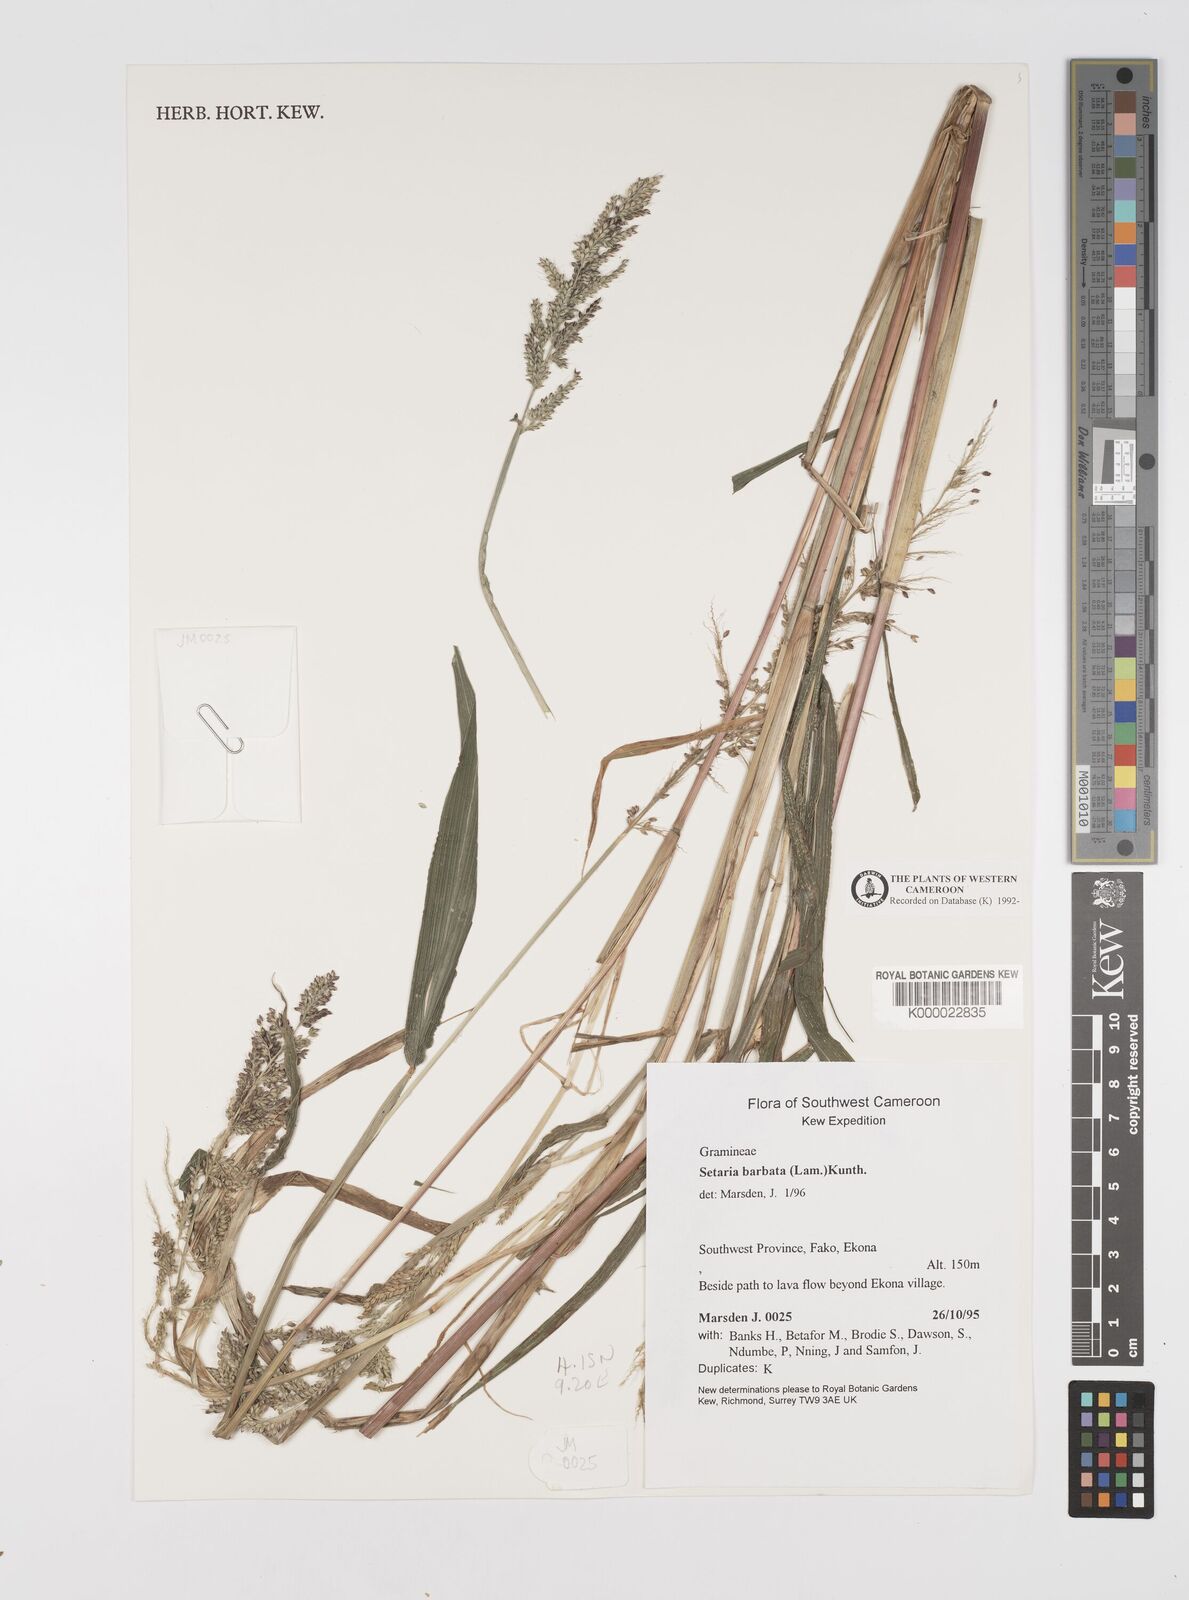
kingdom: Plantae
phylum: Tracheophyta
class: Liliopsida
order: Poales
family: Poaceae
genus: Setaria
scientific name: Setaria barbata
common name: East indian bristlegrass
